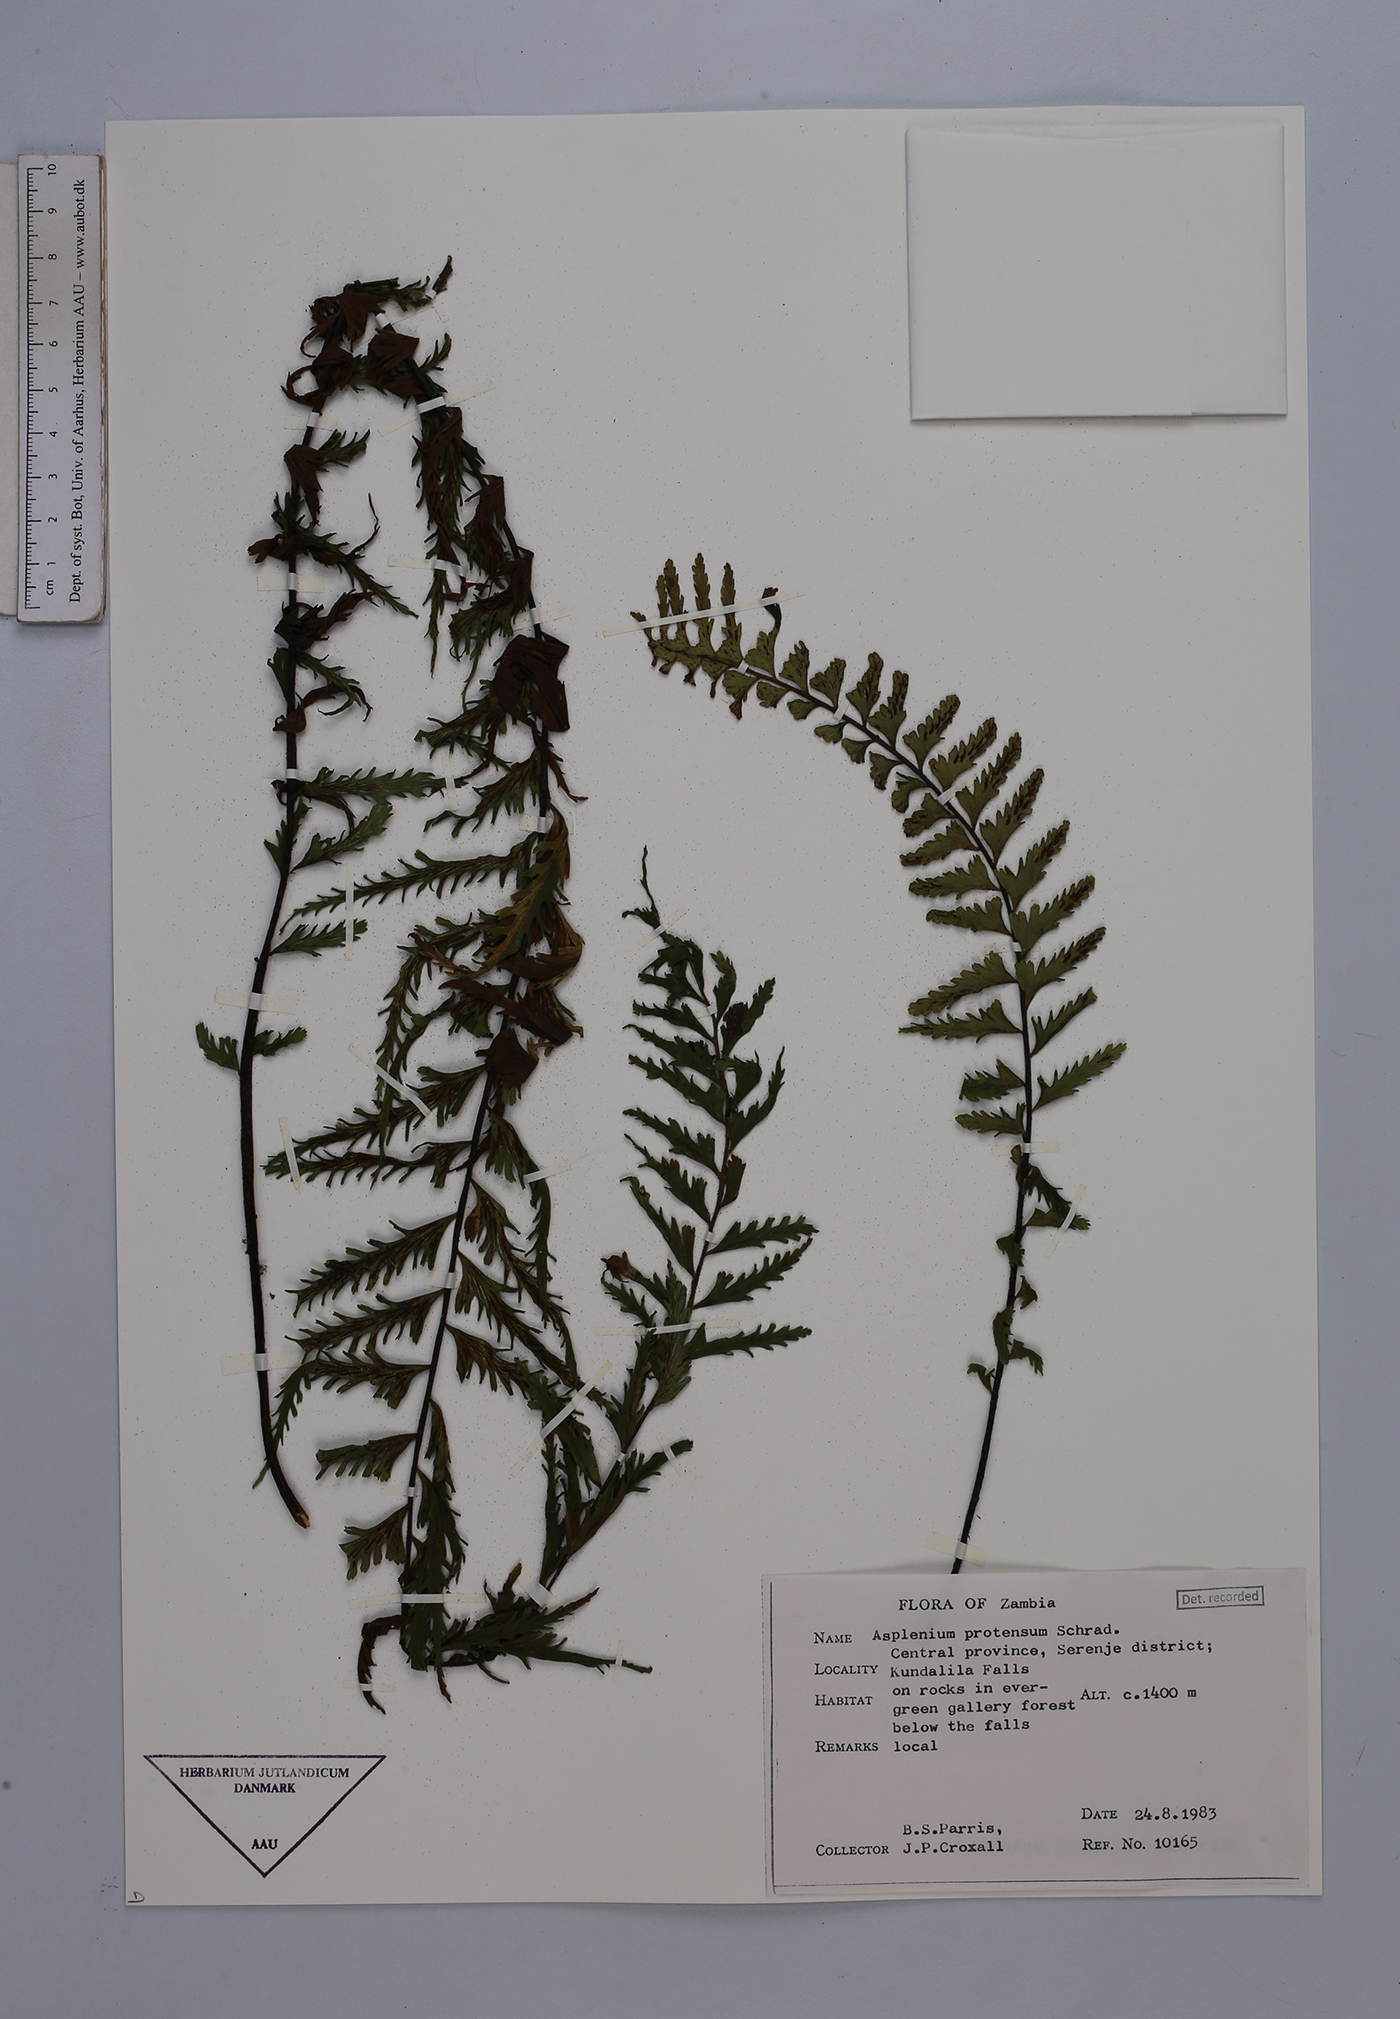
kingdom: Plantae
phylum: Tracheophyta
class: Polypodiopsida
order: Polypodiales
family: Aspleniaceae
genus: Asplenium
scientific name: Asplenium kaulfussii
